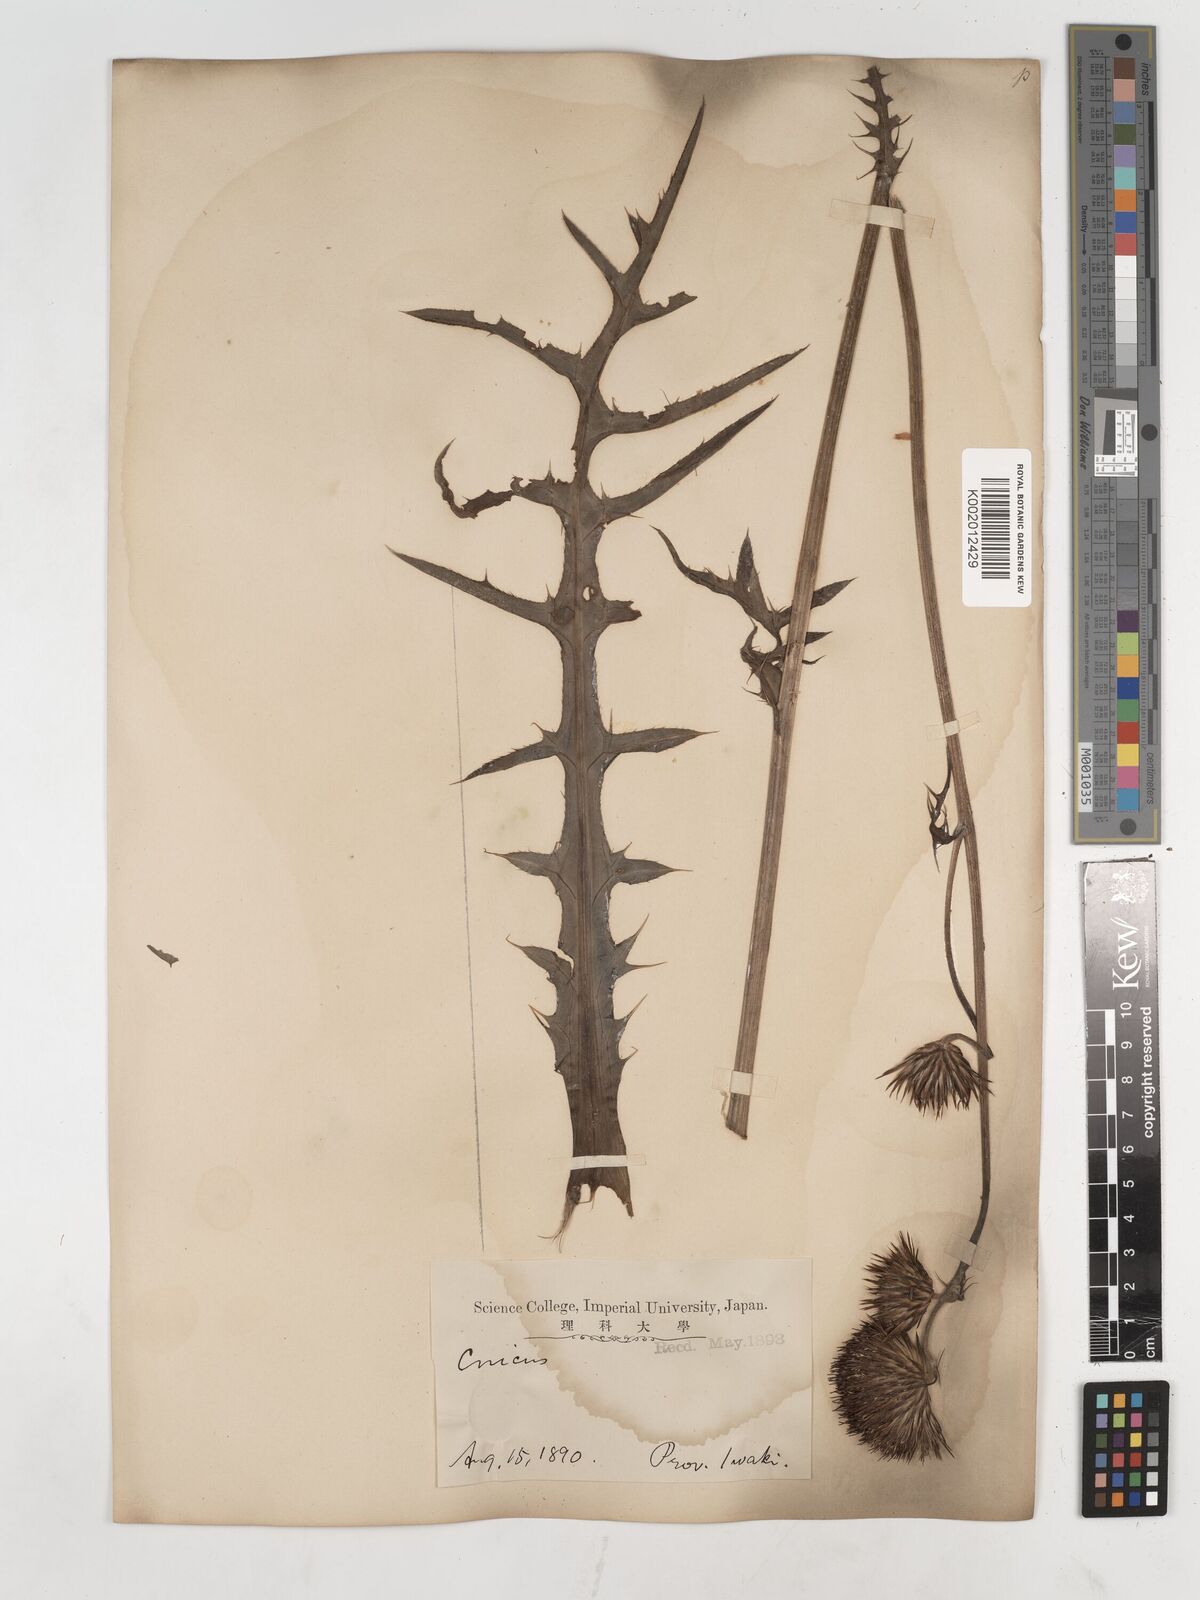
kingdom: Plantae
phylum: Tracheophyta
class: Magnoliopsida
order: Asterales
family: Asteraceae
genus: Cirsium
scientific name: Cirsium
